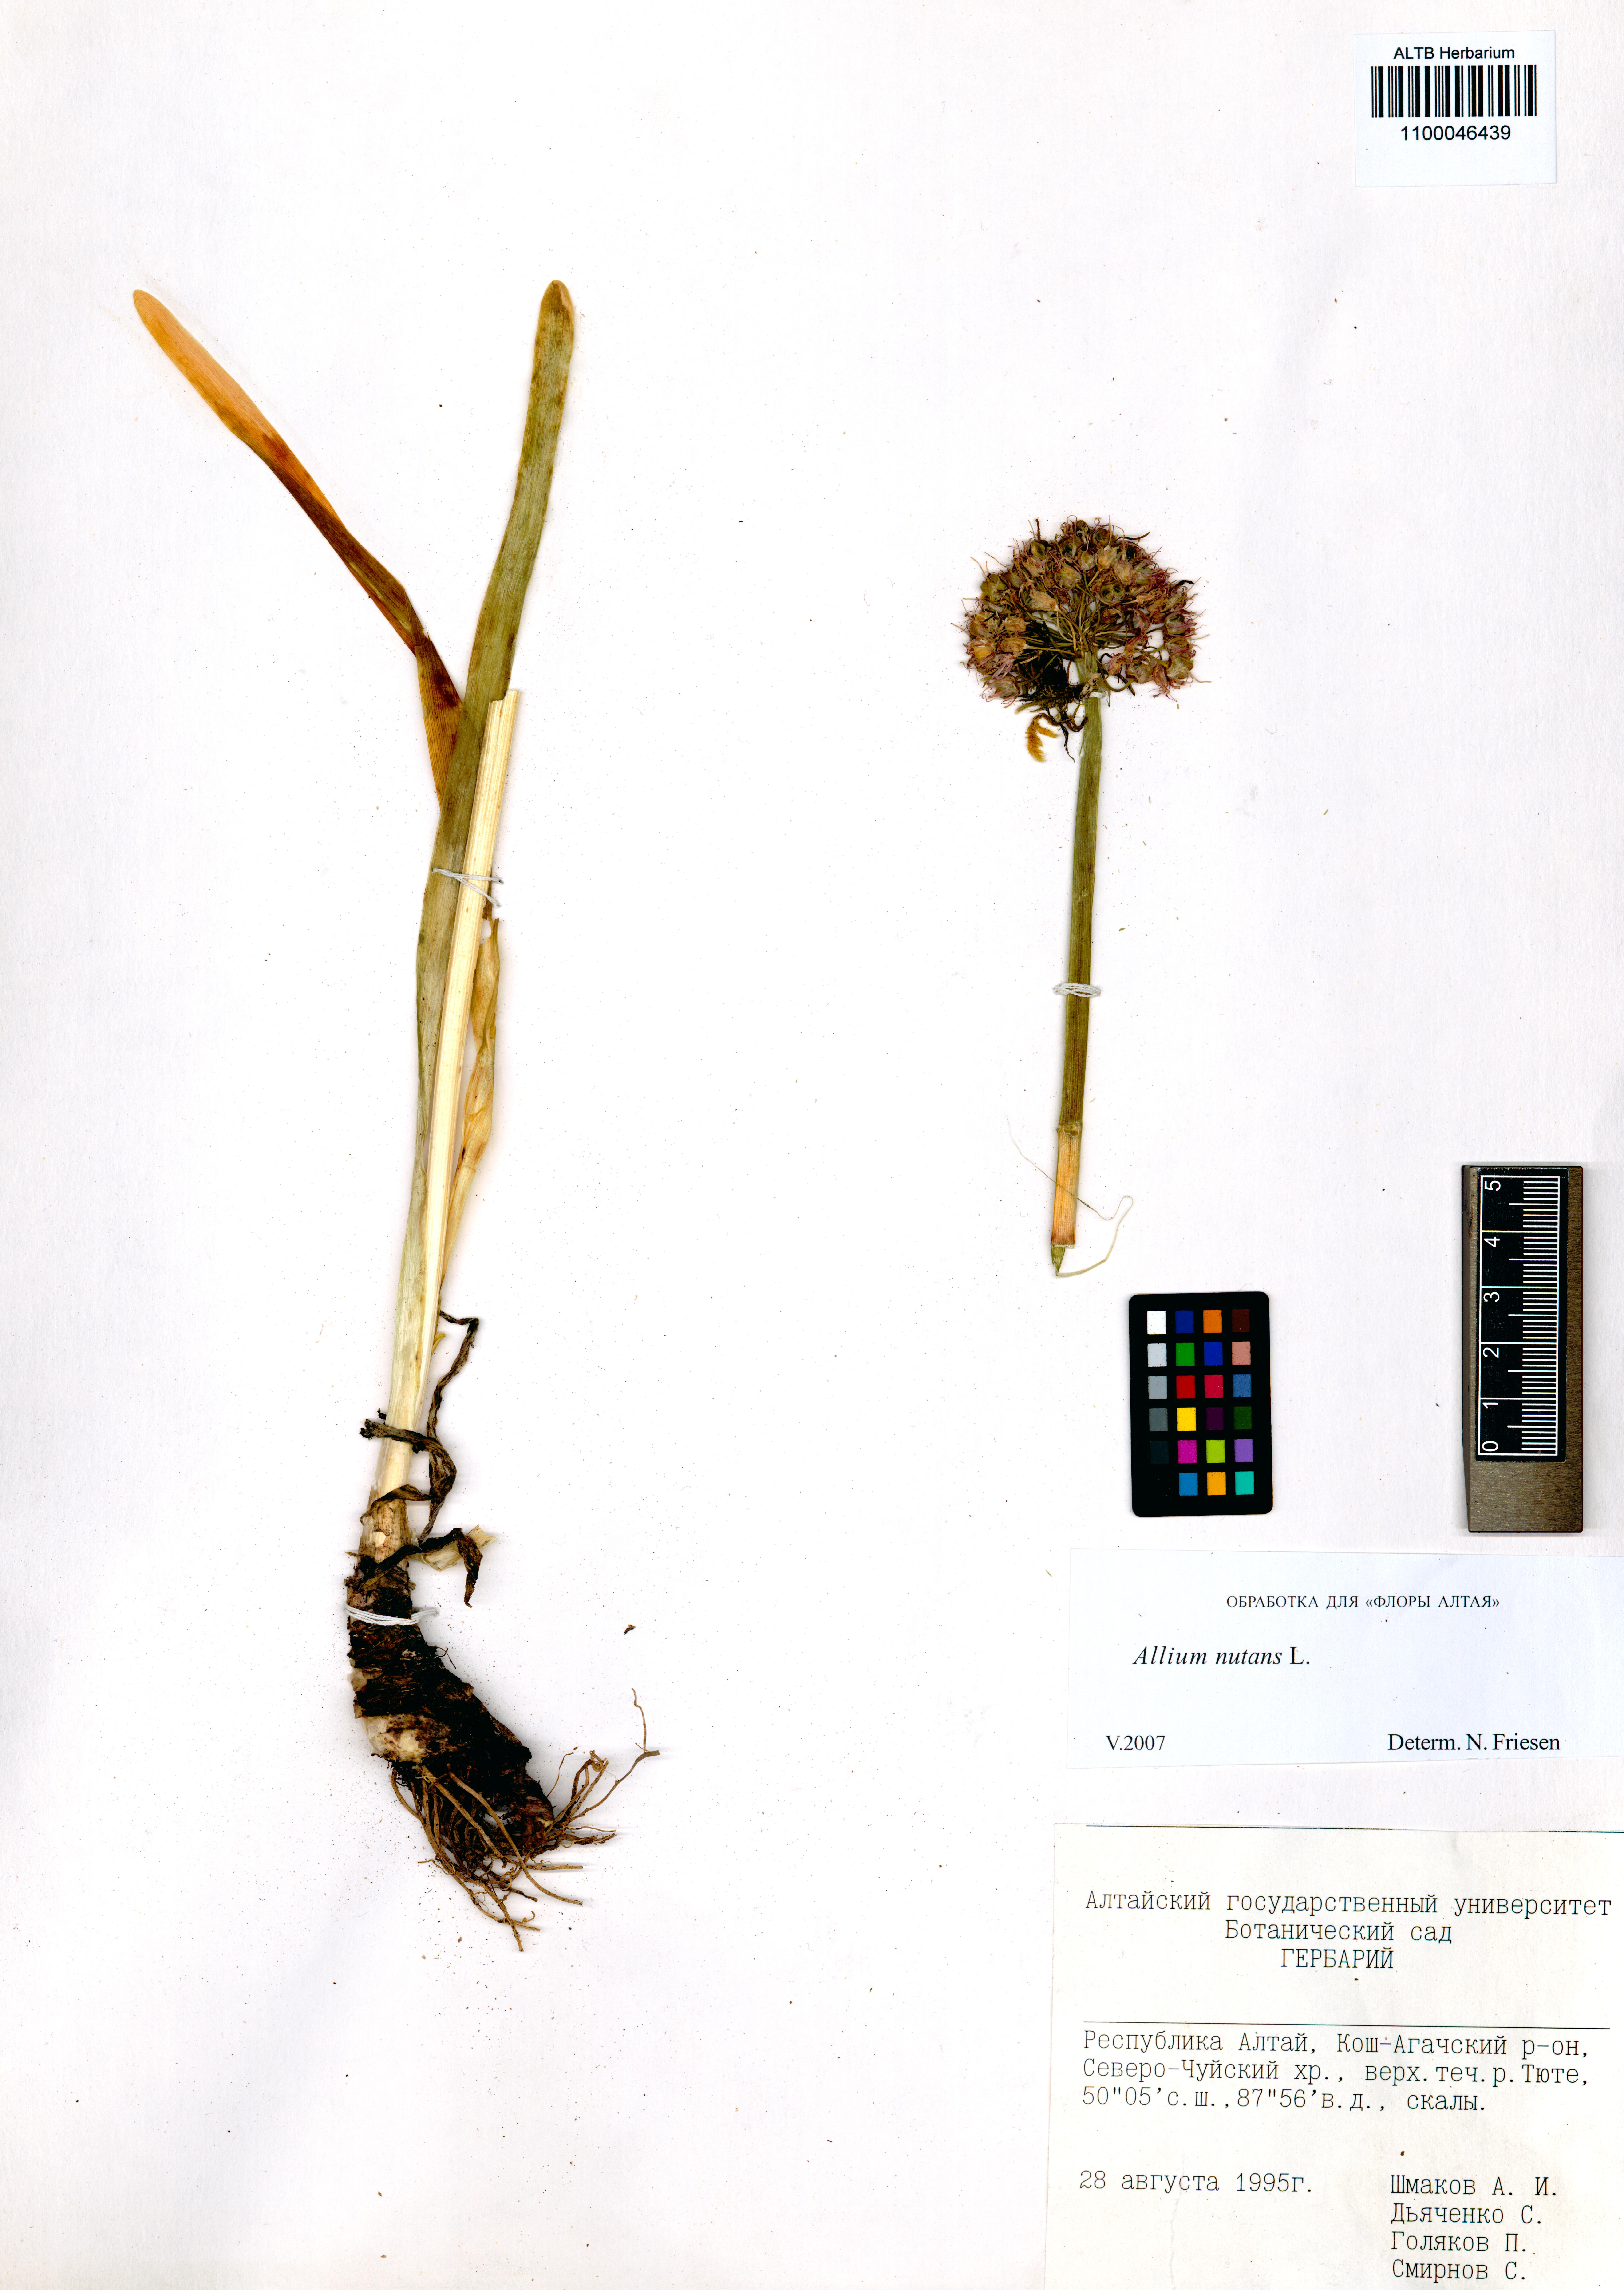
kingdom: Plantae
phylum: Tracheophyta
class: Liliopsida
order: Asparagales
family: Amaryllidaceae
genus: Allium
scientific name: Allium nutans
